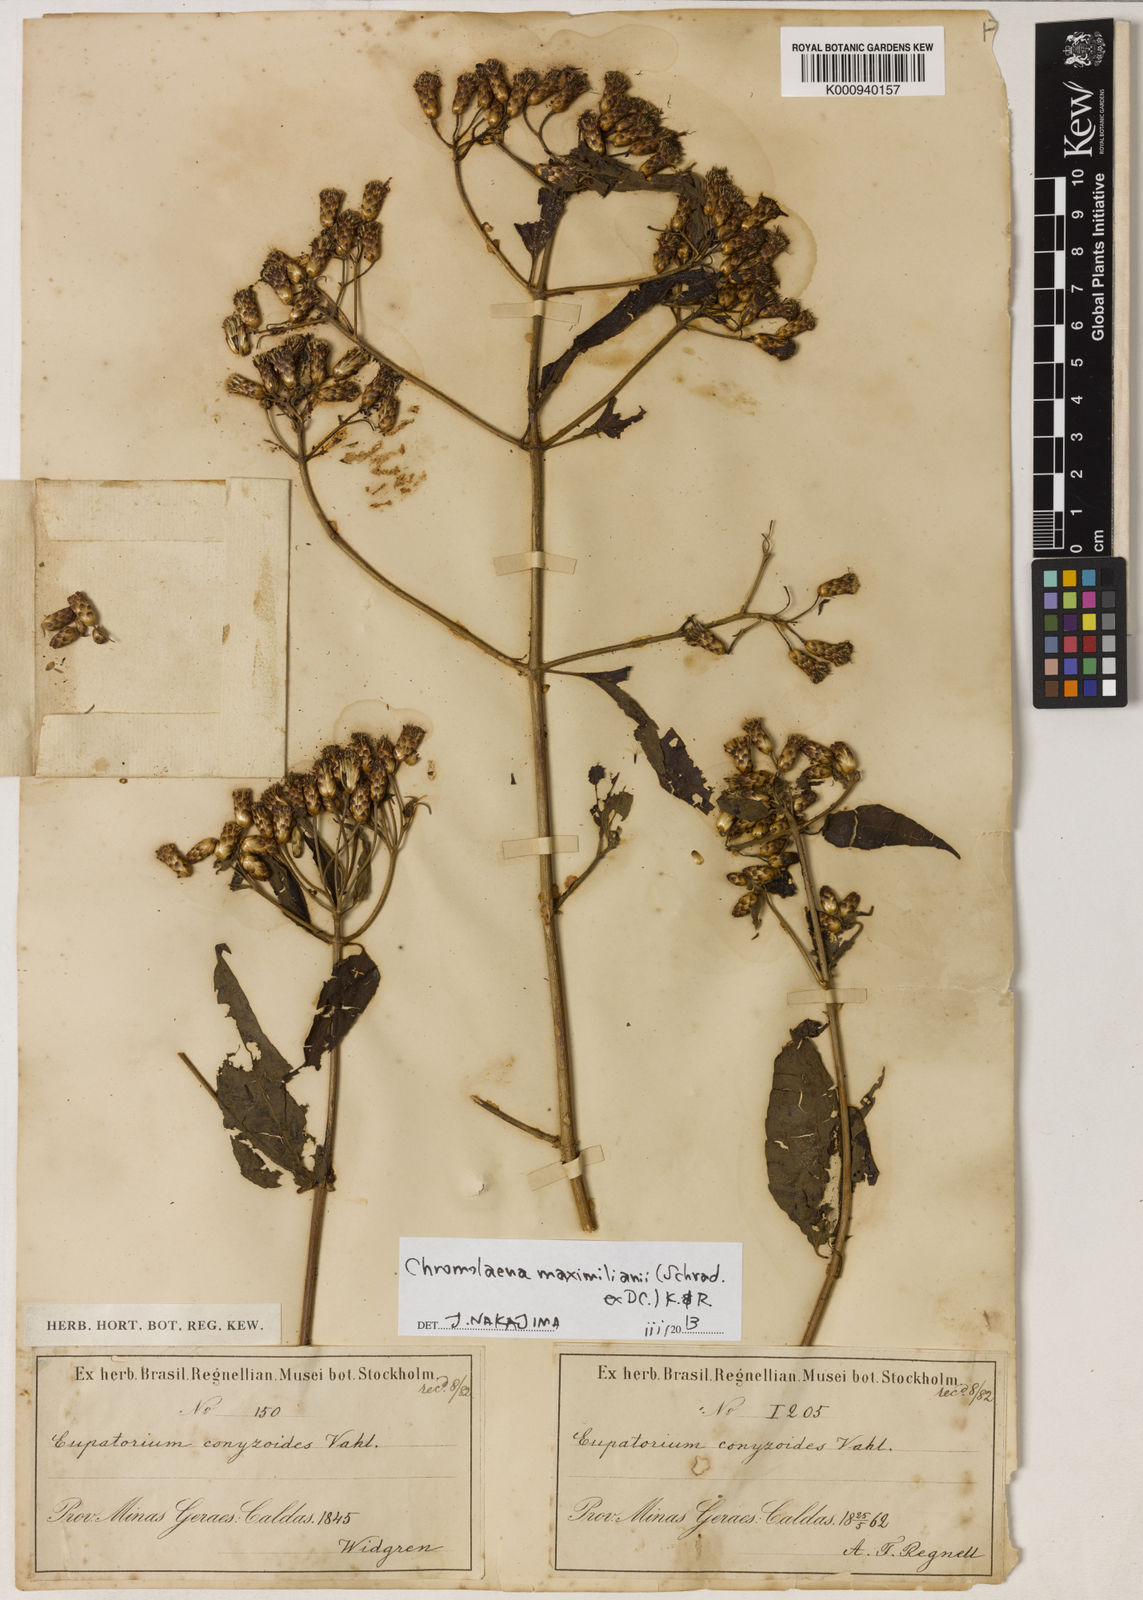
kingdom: Plantae
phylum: Tracheophyta
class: Magnoliopsida
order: Asterales
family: Asteraceae
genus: Chromolaena
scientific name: Chromolaena maximiliani
